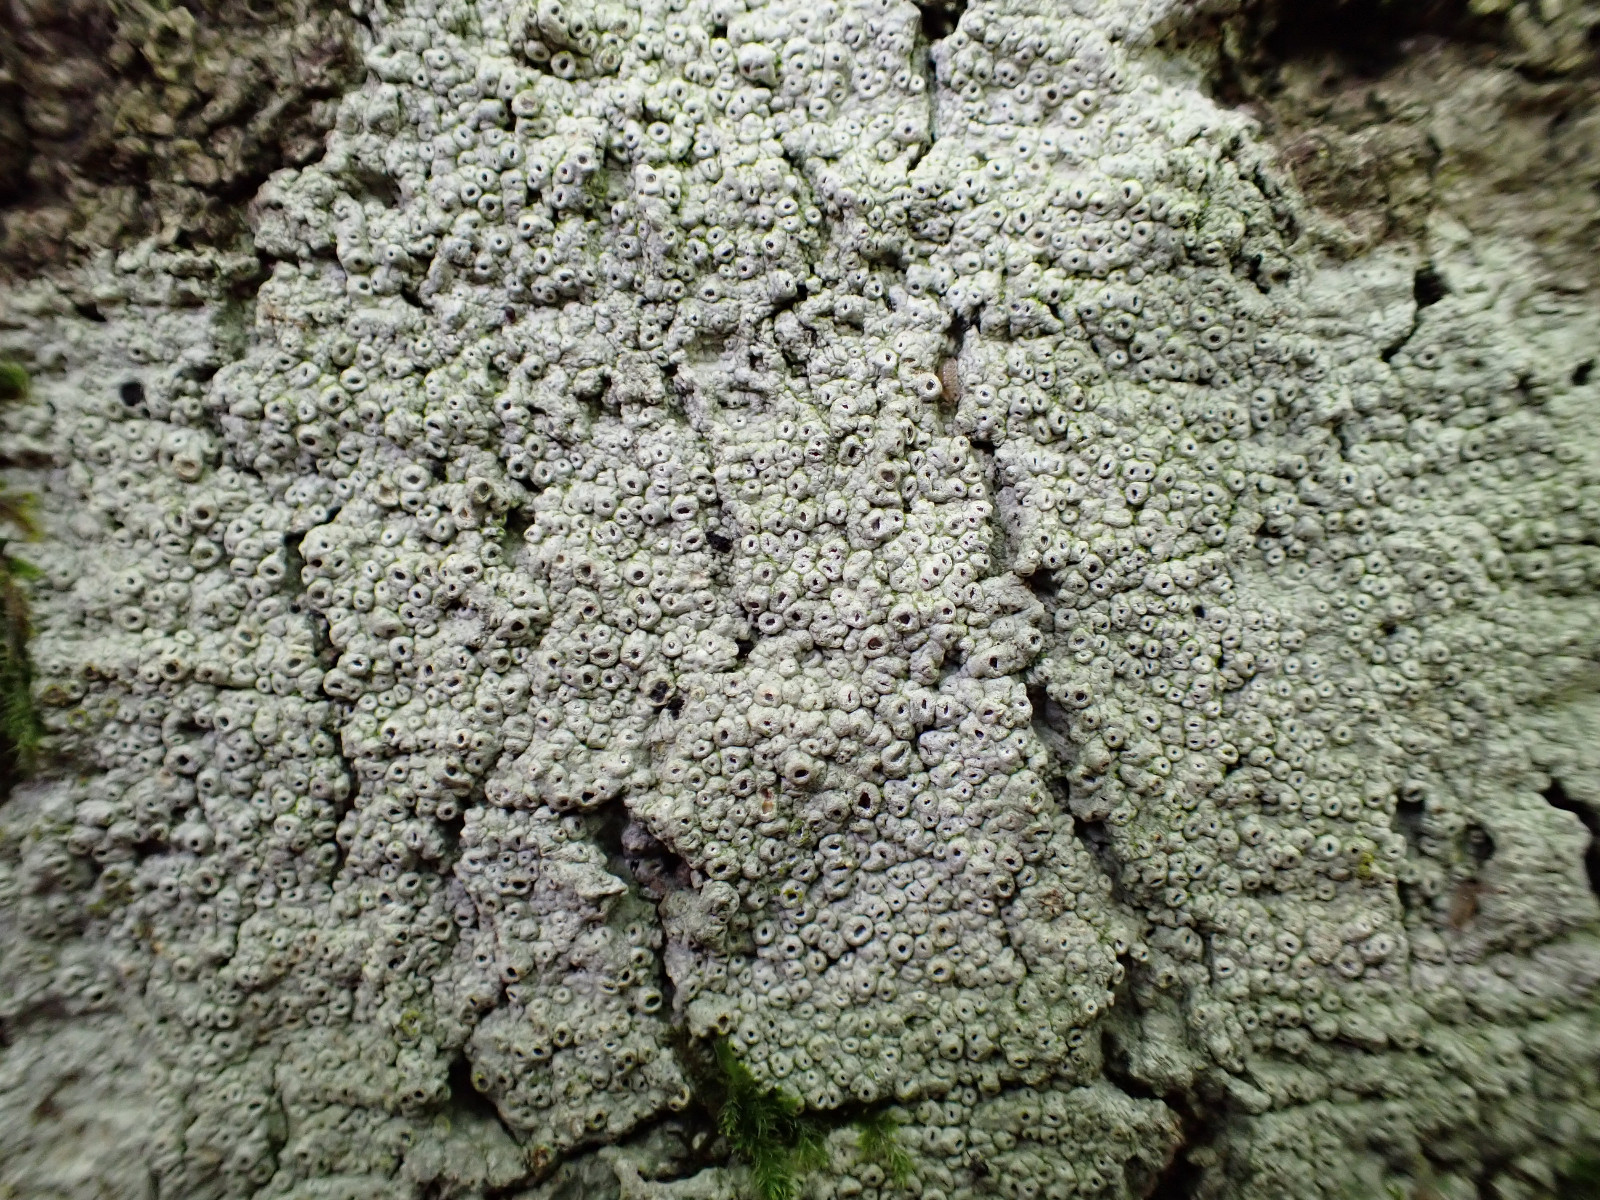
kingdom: Fungi
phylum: Ascomycota
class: Lecanoromycetes
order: Ostropales
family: Graphidaceae
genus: Thelotrema
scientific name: Thelotrema lepadinum
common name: almindelig slørkantlav
